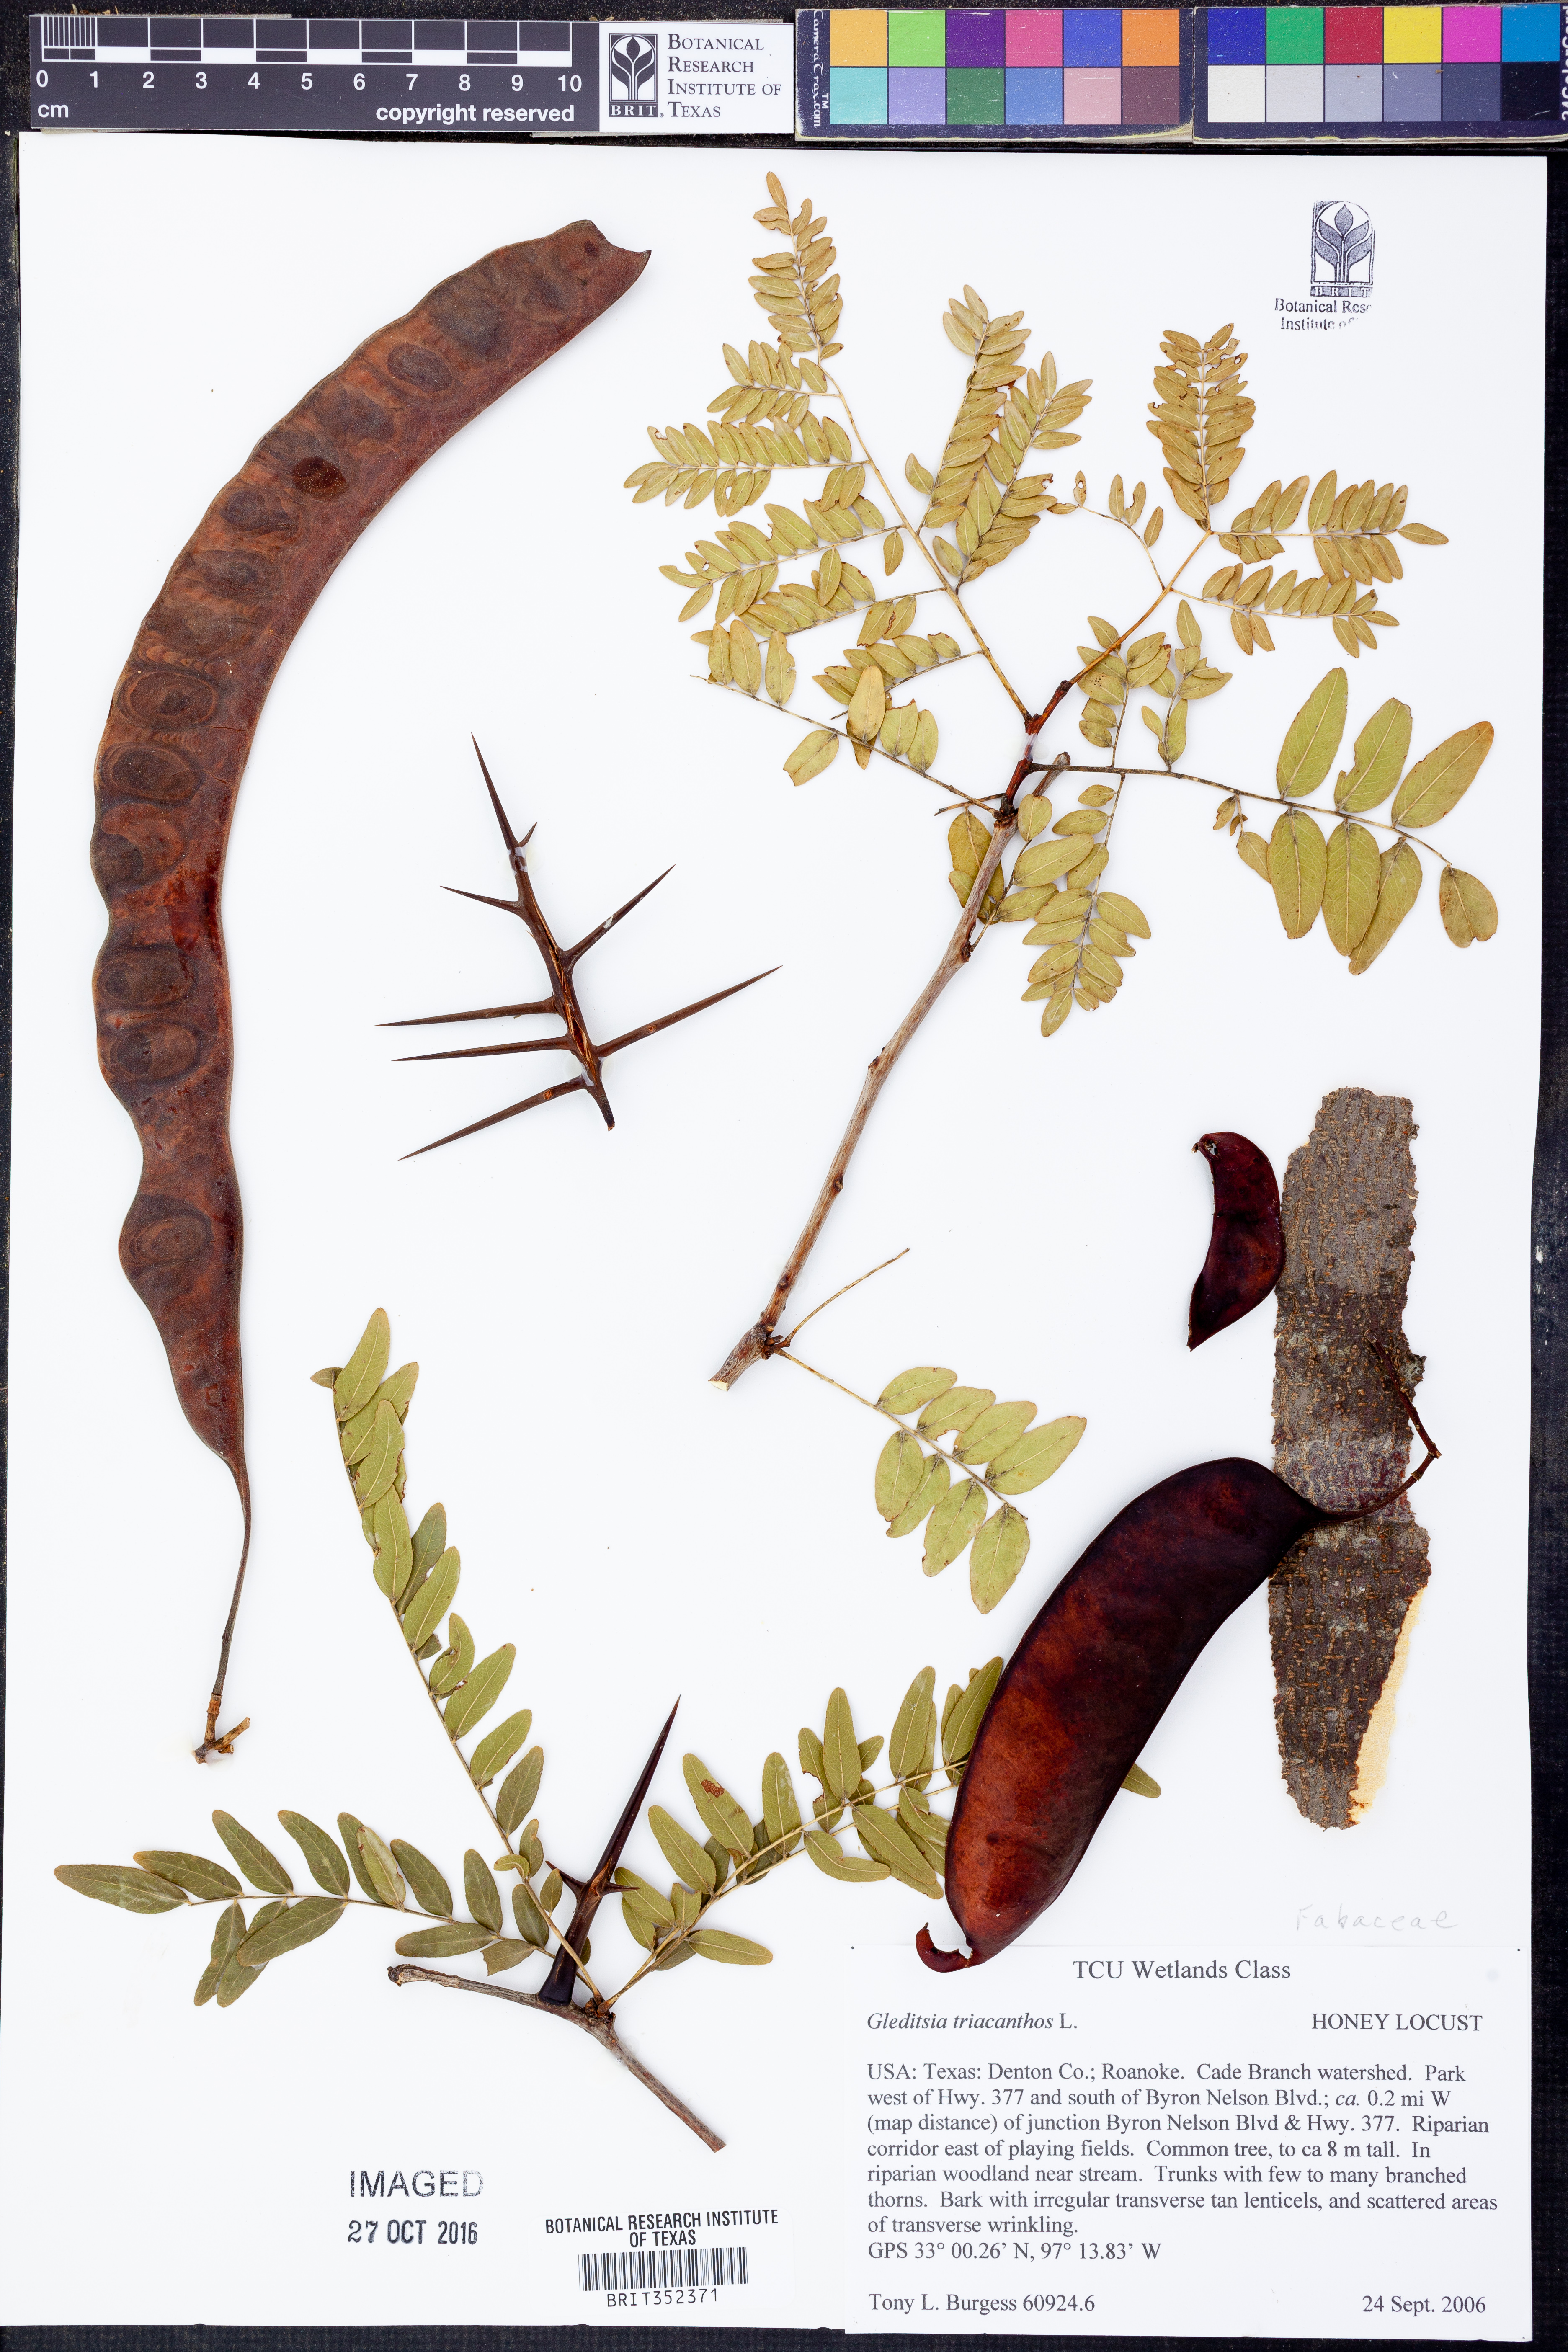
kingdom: Plantae
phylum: Tracheophyta
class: Magnoliopsida
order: Fabales
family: Fabaceae
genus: Gleditsia
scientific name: Gleditsia triacanthos
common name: Common honeylocust
